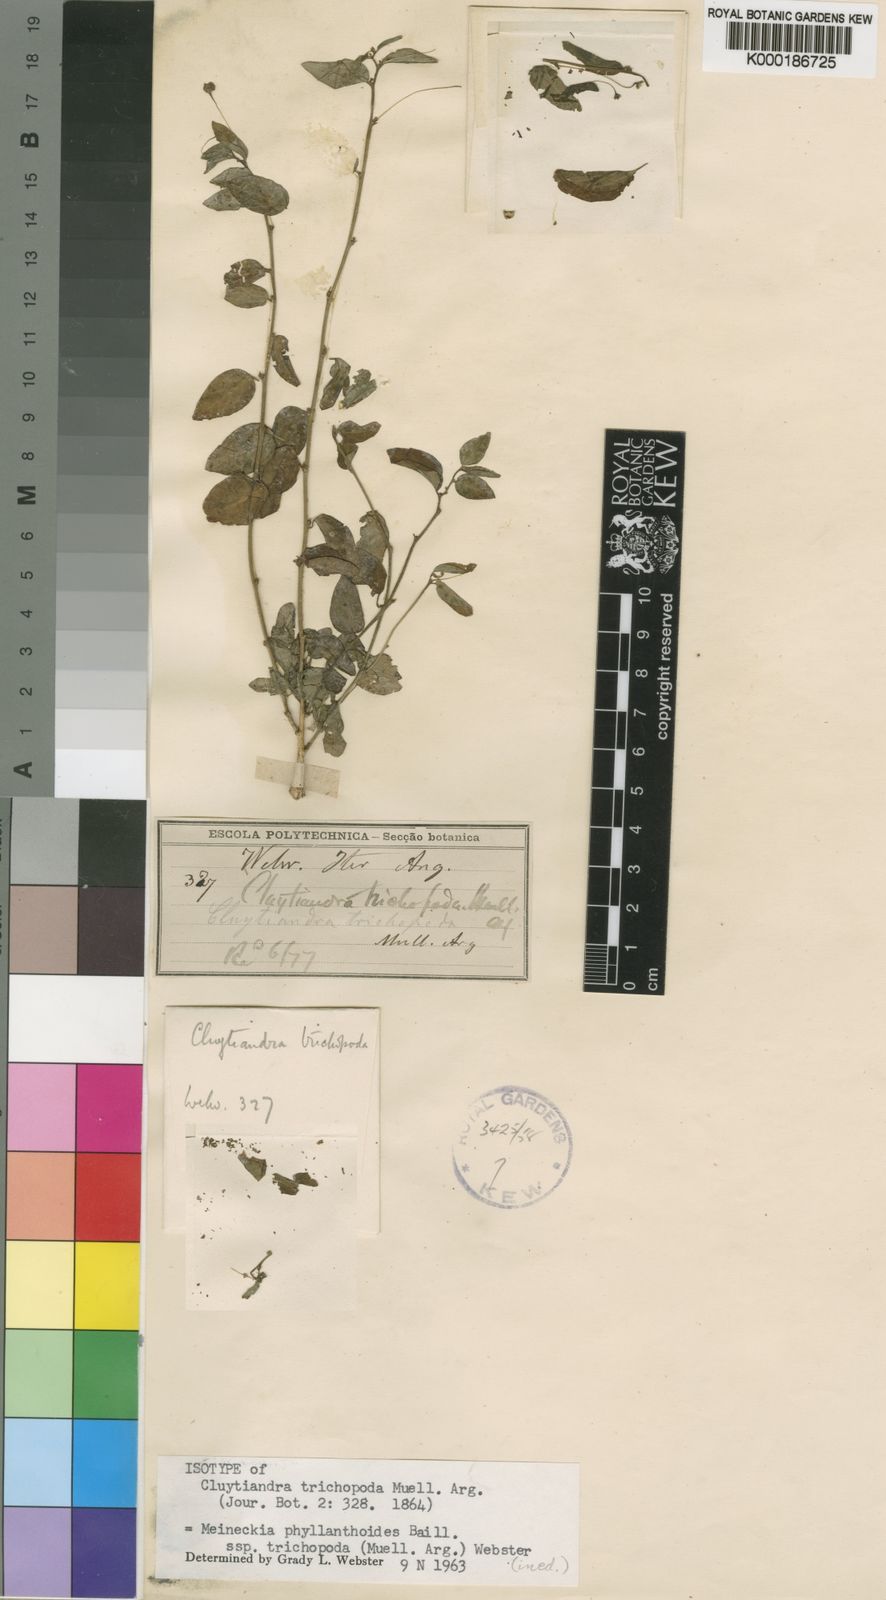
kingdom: Plantae
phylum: Tracheophyta
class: Magnoliopsida
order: Malpighiales
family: Phyllanthaceae
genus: Meineckia
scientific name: Meineckia phyllanthoides
